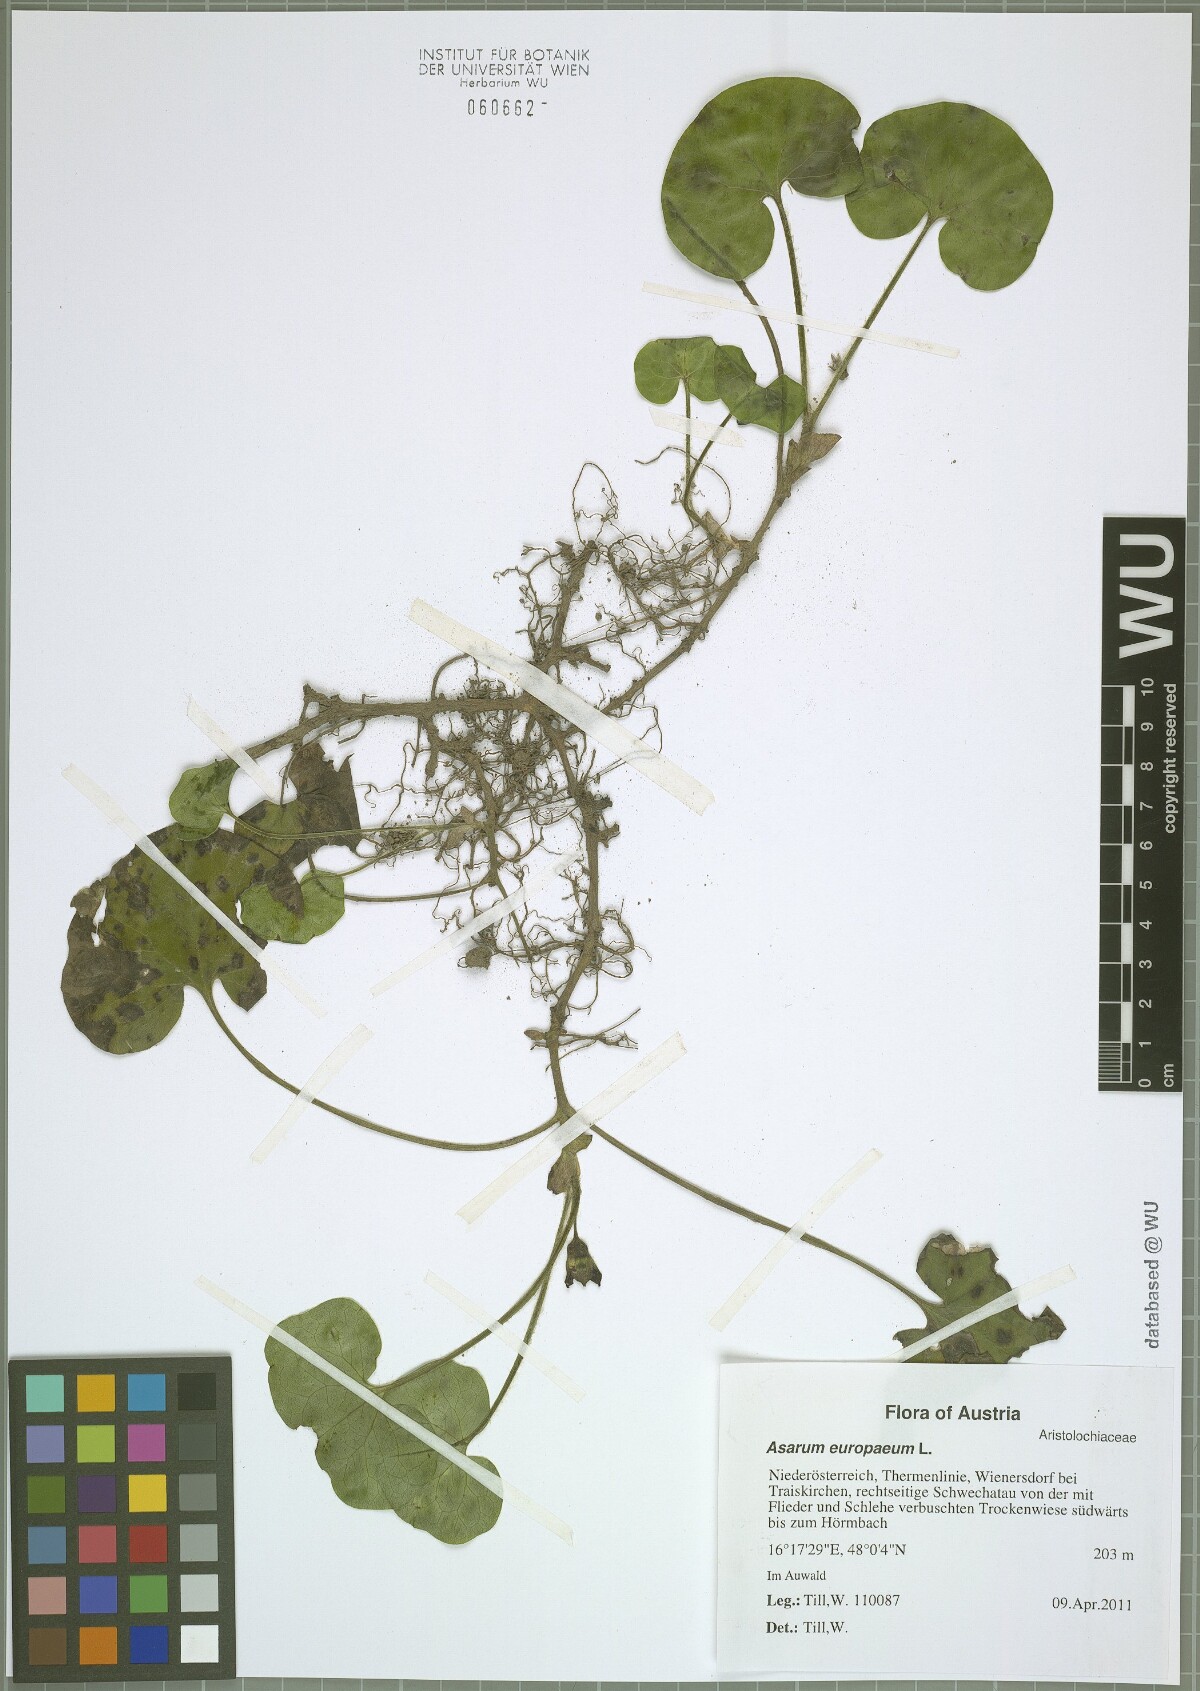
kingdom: Plantae
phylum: Tracheophyta
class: Magnoliopsida
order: Piperales
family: Aristolochiaceae
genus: Asarum
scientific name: Asarum europaeum
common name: Asarabacca
